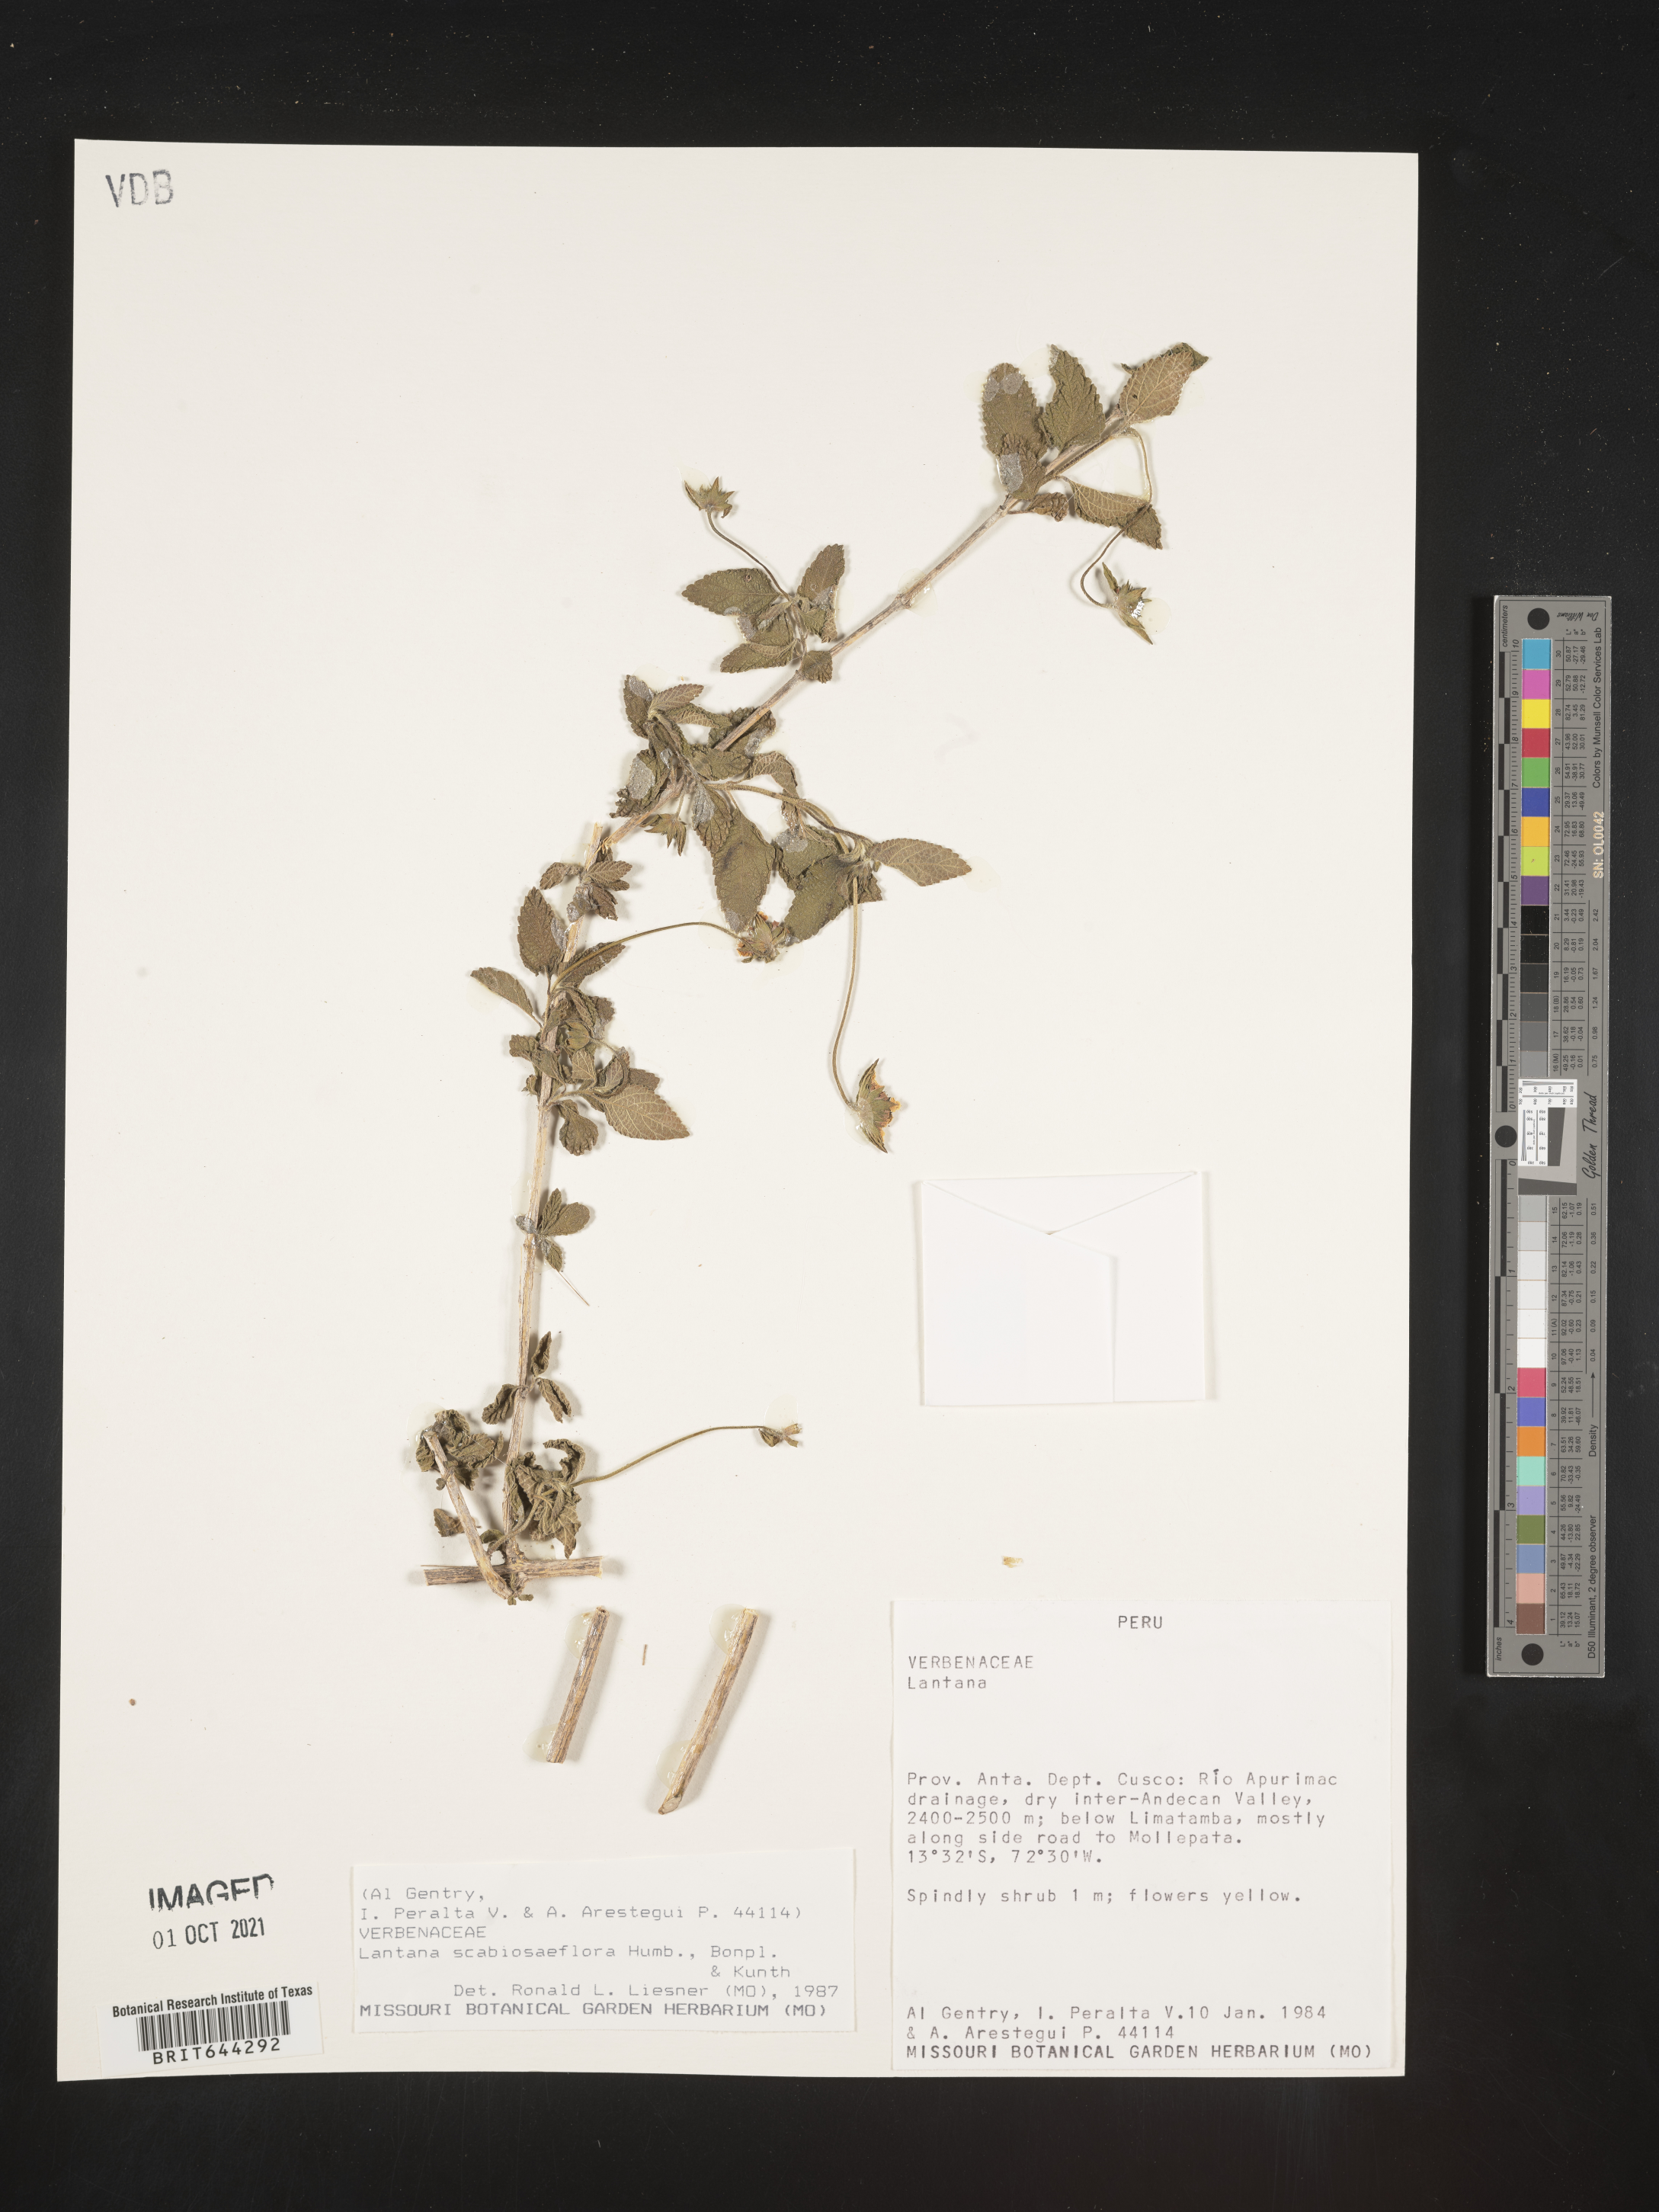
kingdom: Plantae
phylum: Tracheophyta
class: Magnoliopsida
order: Lamiales
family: Verbenaceae
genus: Lantana
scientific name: Lantana
